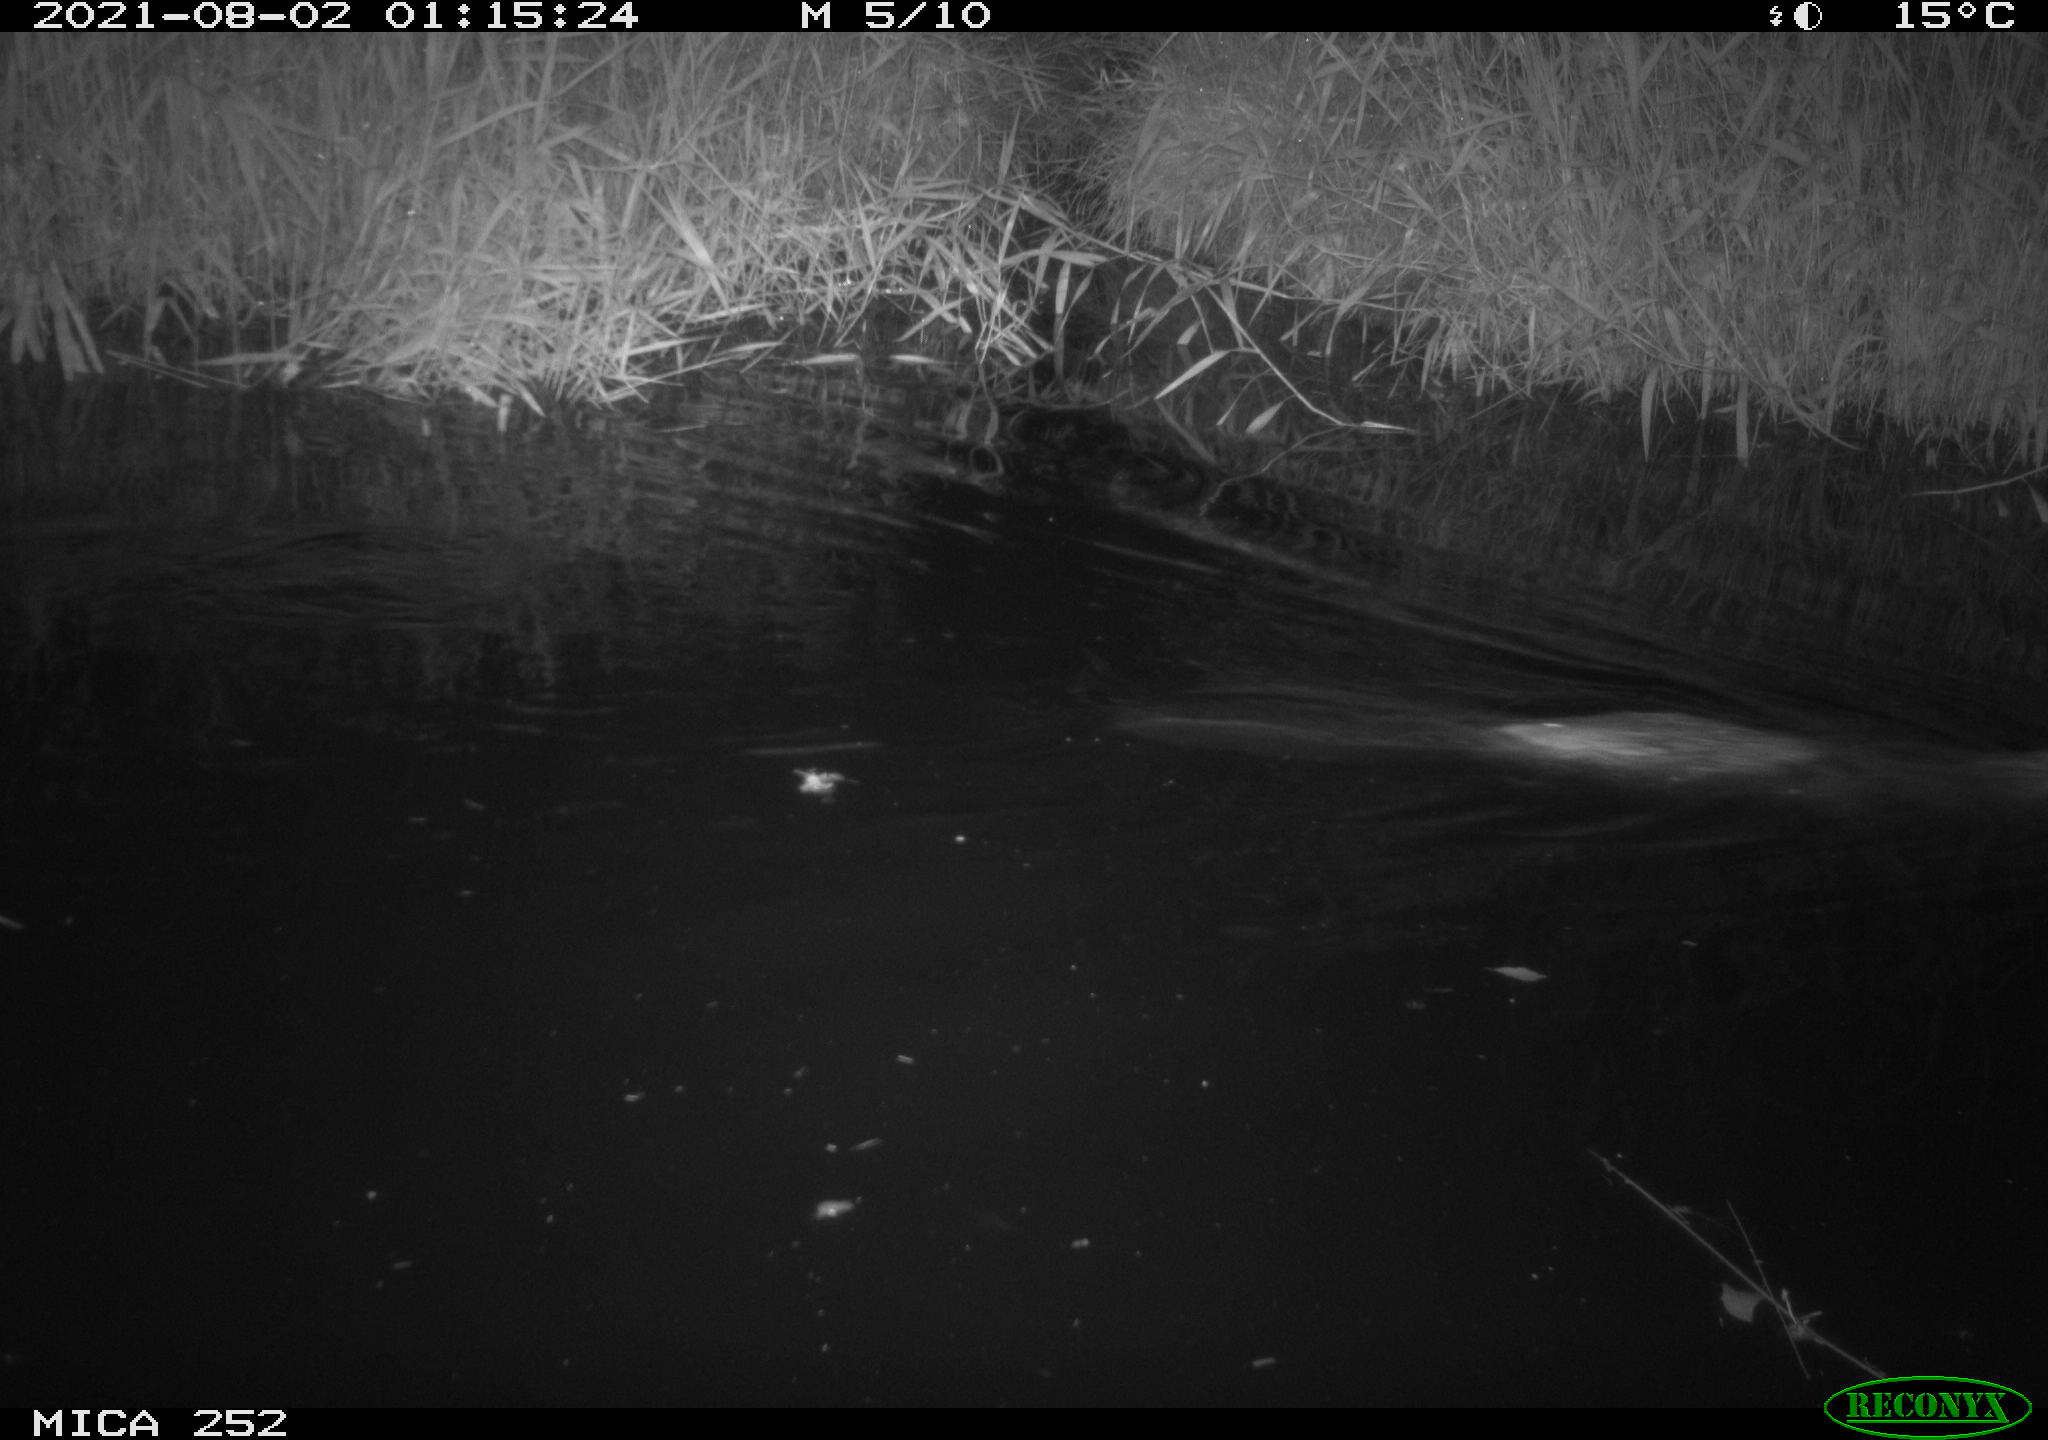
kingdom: Animalia
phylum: Chordata
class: Mammalia
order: Rodentia
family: Castoridae
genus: Castor
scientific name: Castor fiber
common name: Eurasian beaver
